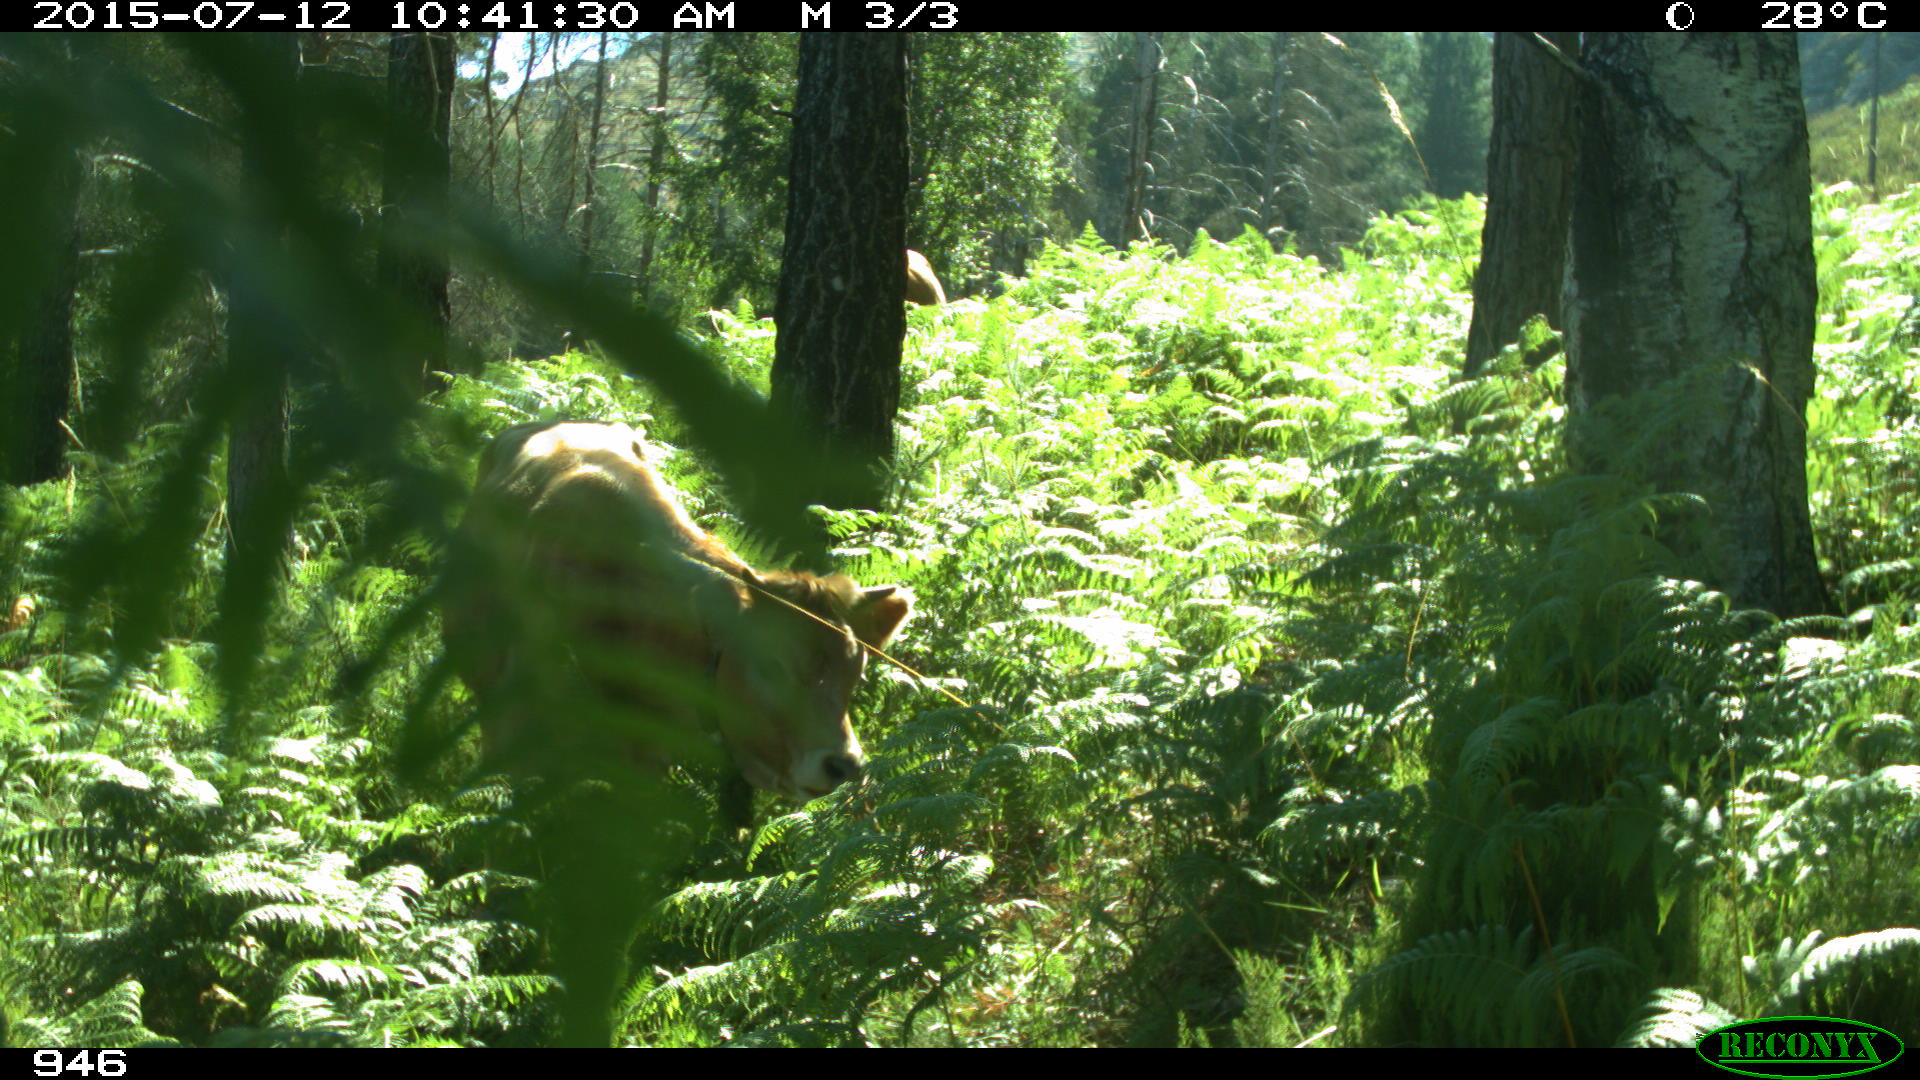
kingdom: Animalia
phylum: Chordata
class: Mammalia
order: Artiodactyla
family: Bovidae
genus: Bos
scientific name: Bos taurus
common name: Domesticated cattle
